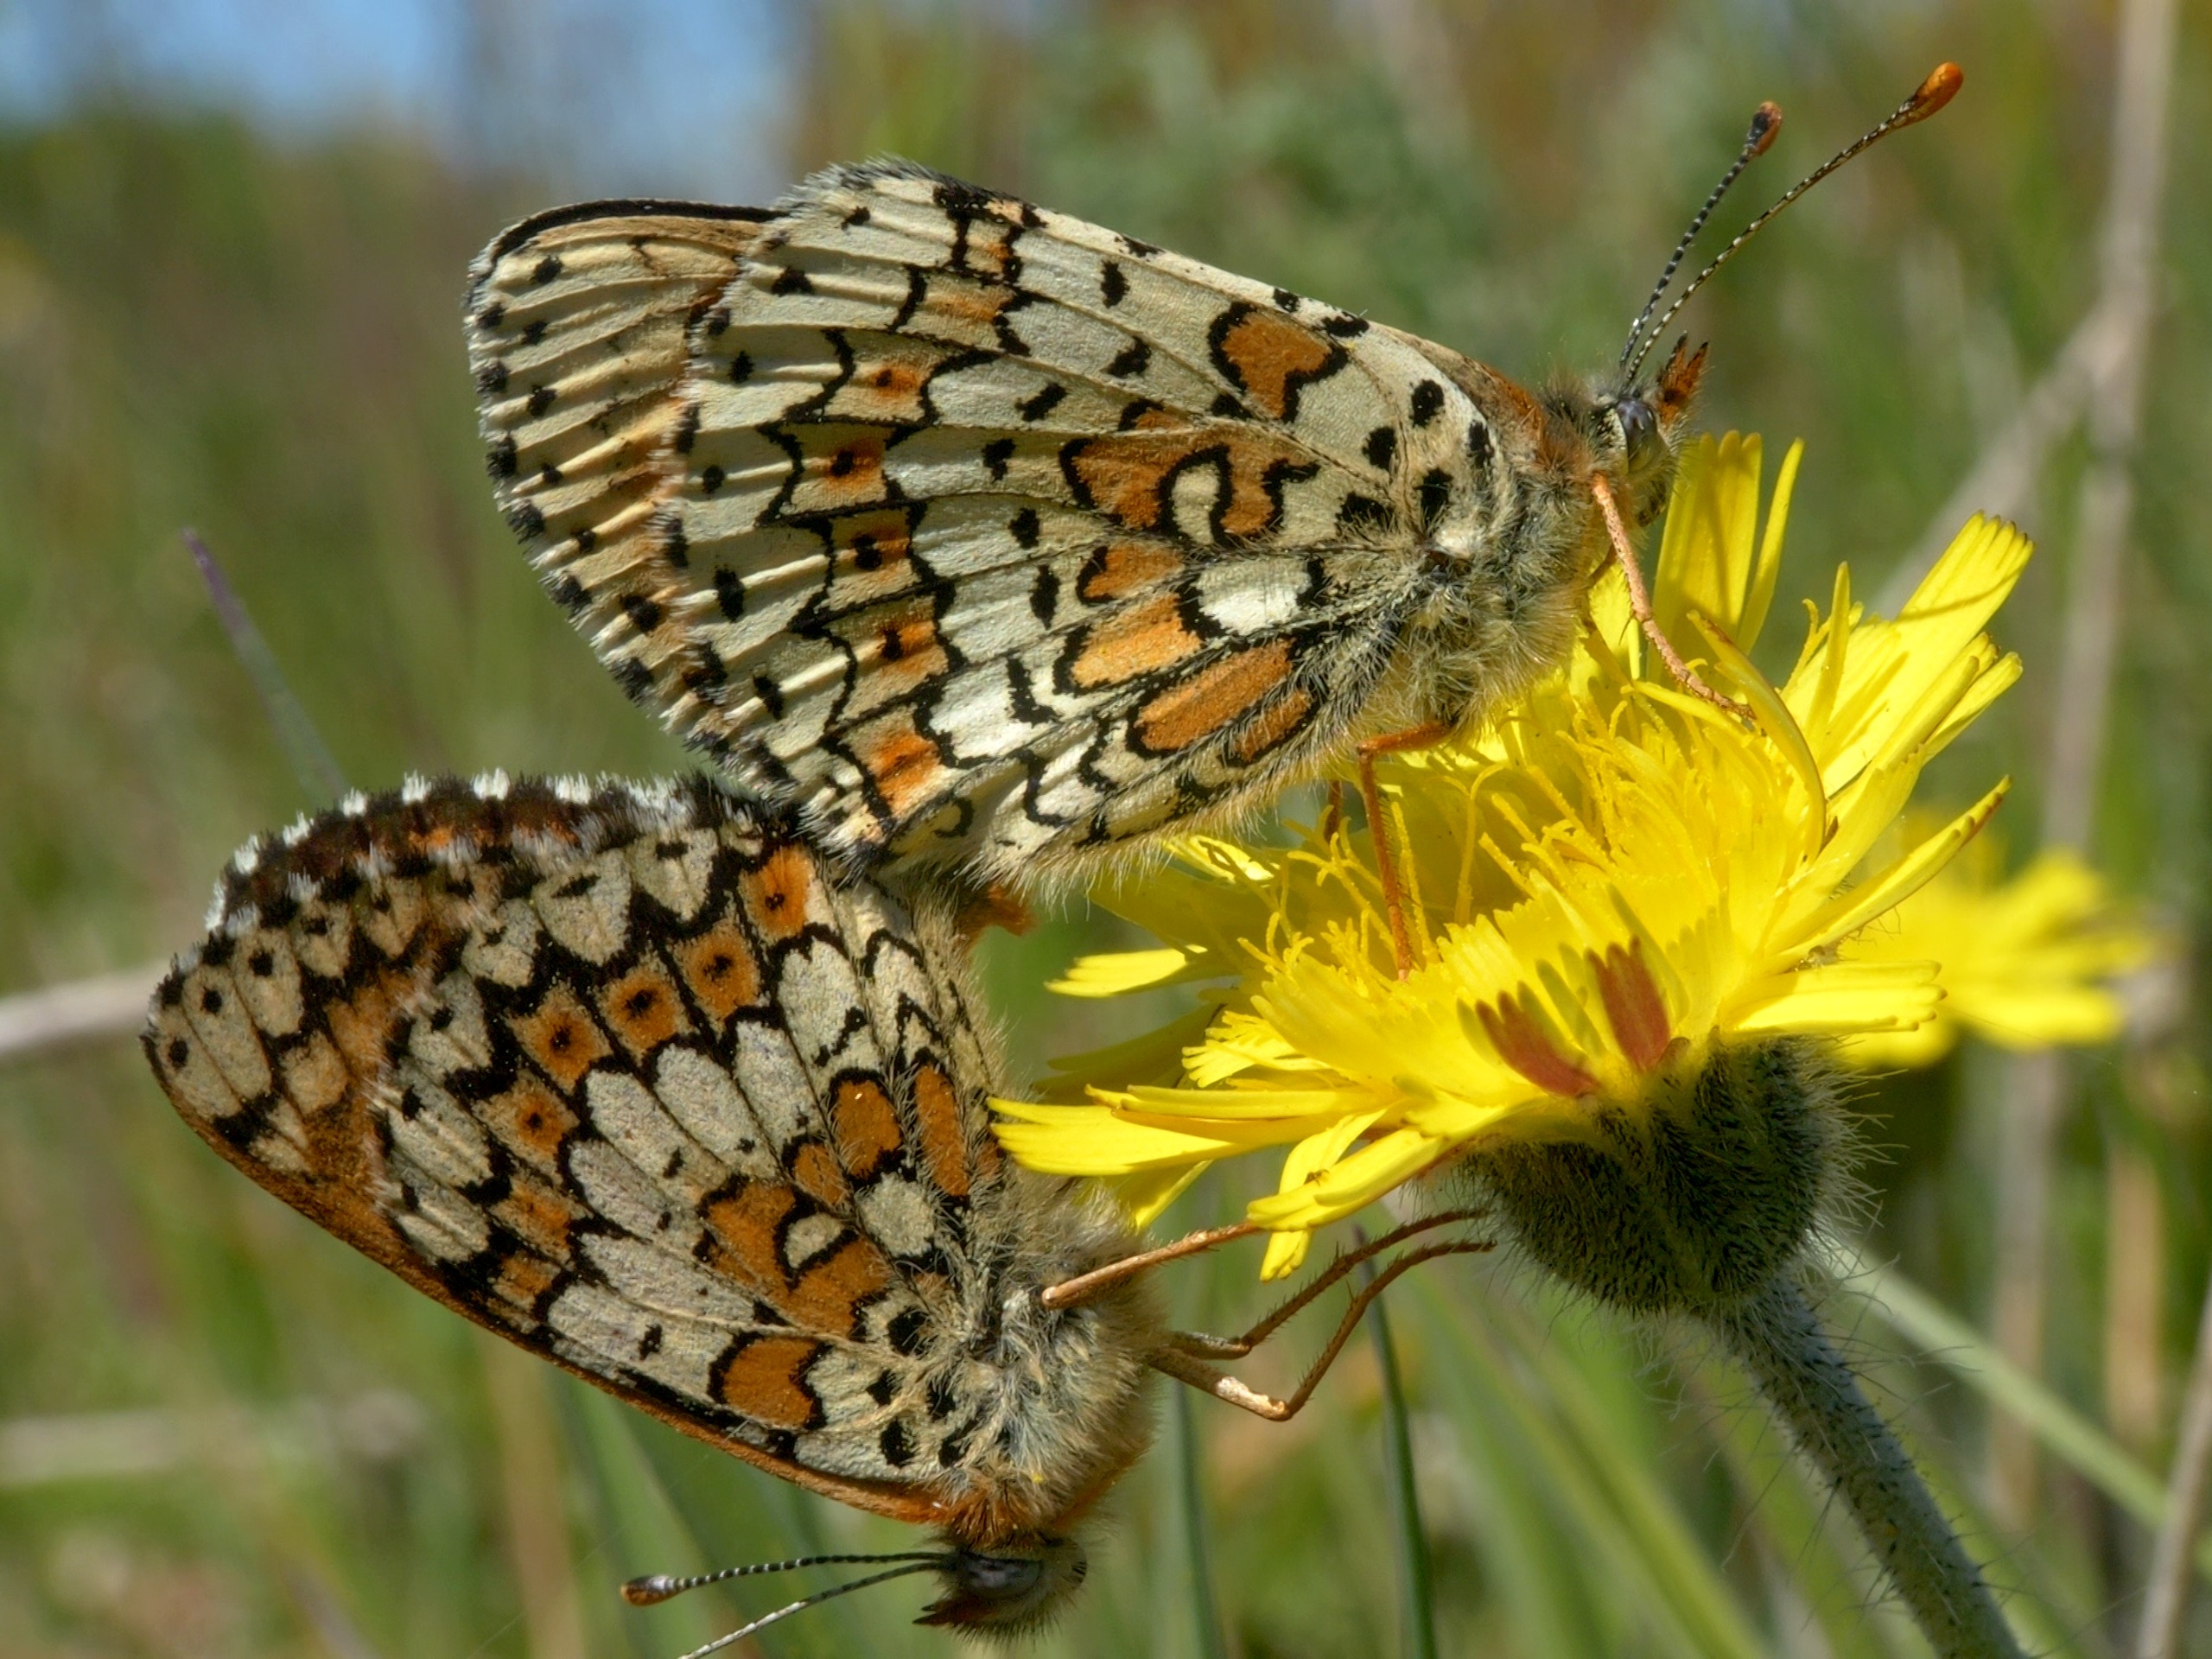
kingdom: Animalia
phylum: Arthropoda
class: Insecta
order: Lepidoptera
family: Nymphalidae
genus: Melitaea
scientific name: Melitaea cinxia
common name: Okkergul pletvinge
